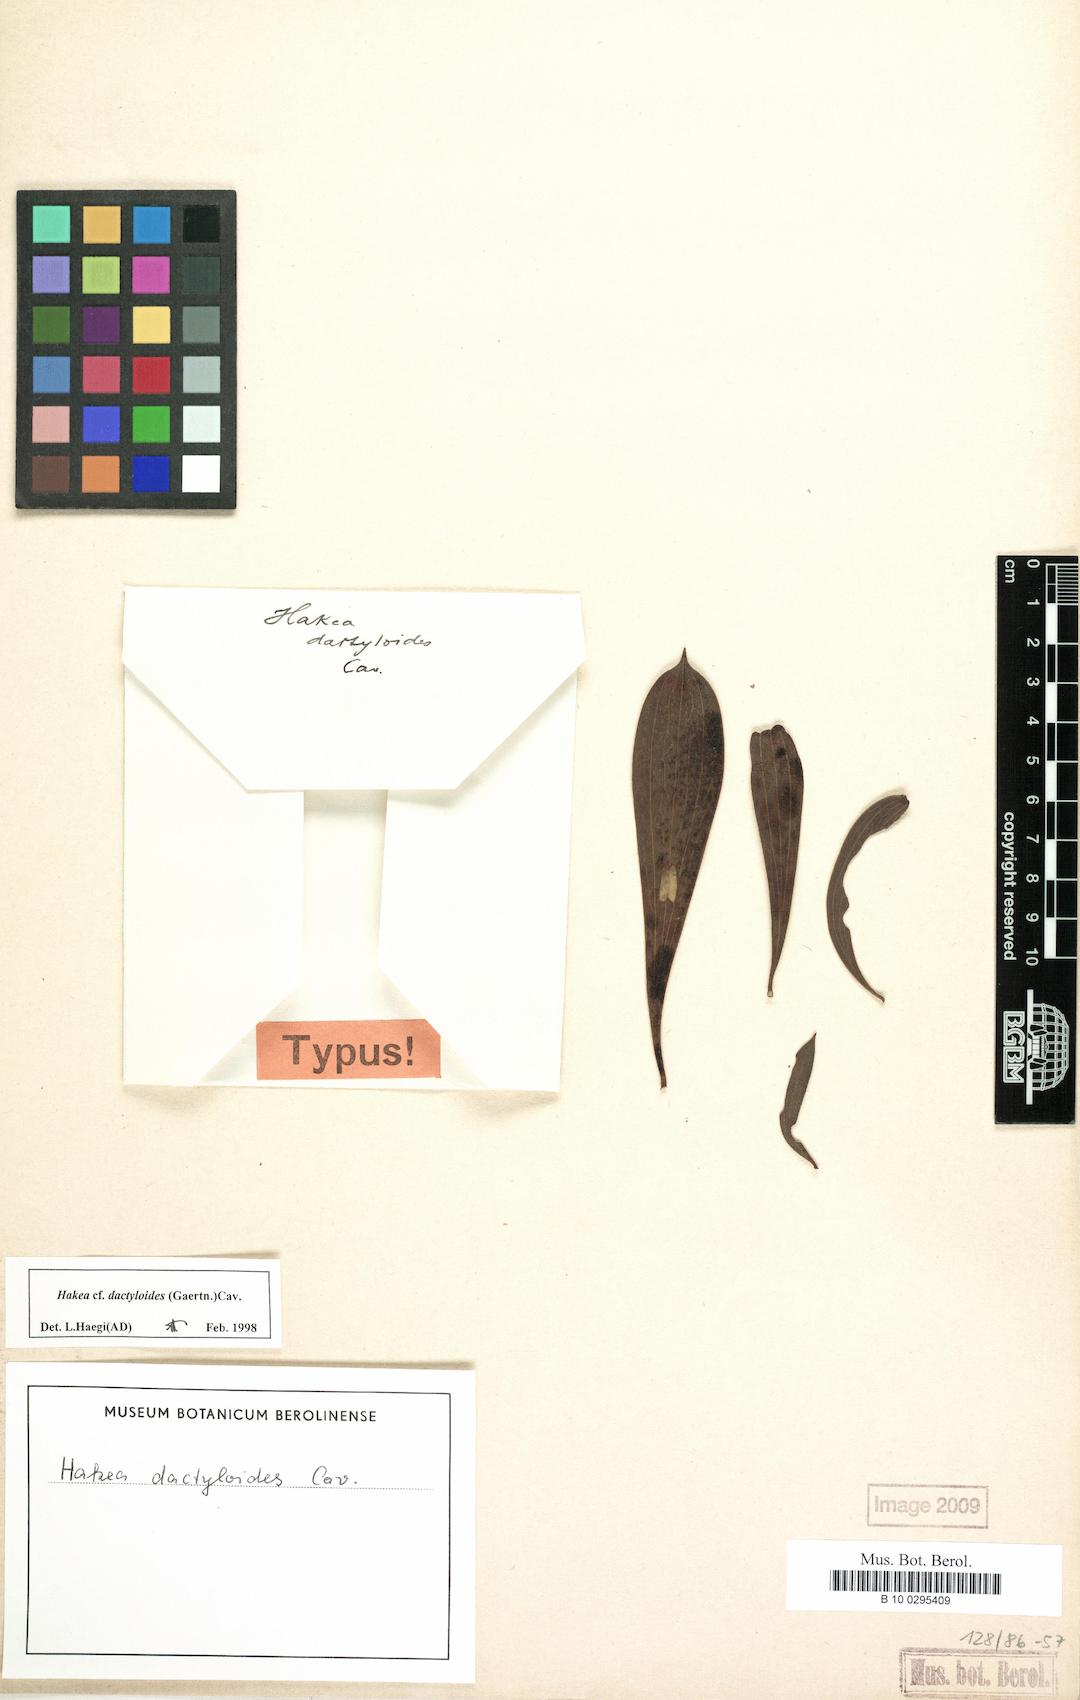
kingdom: Plantae
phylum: Tracheophyta
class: Magnoliopsida
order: Proteales
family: Proteaceae
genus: Hakea
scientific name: Hakea dactyloides
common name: Finger hakea
